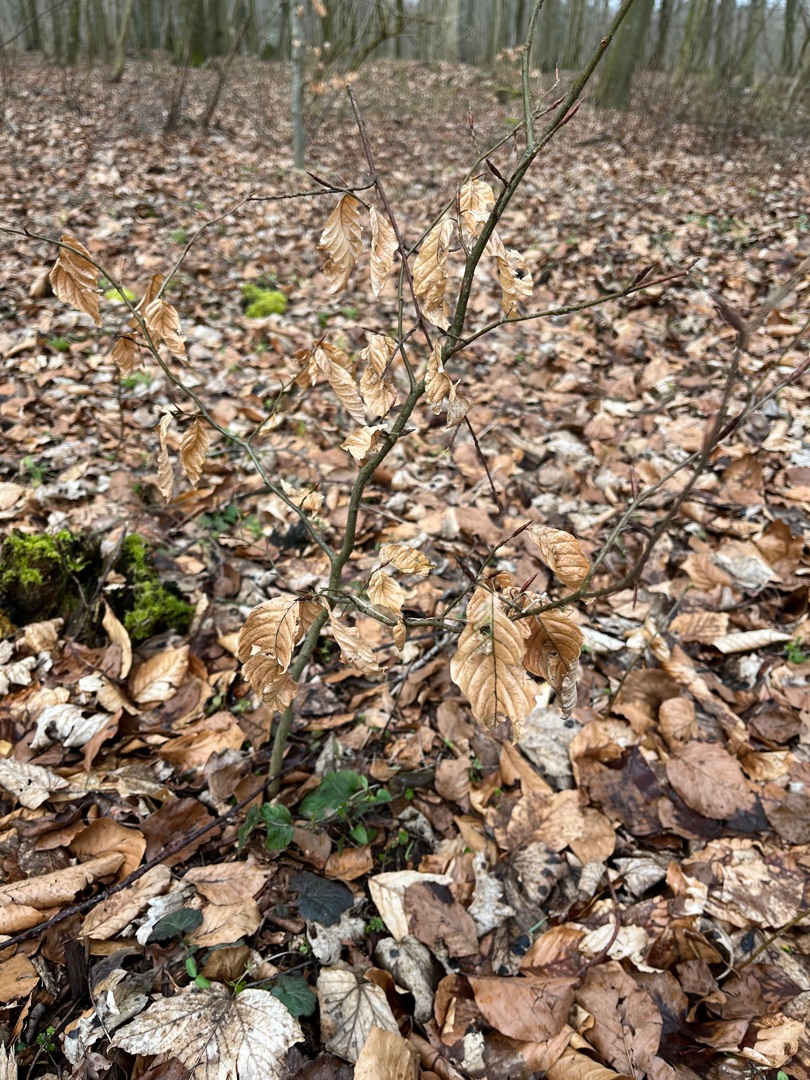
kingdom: Plantae
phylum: Tracheophyta
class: Magnoliopsida
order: Fagales
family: Fagaceae
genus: Fagus
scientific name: Fagus sylvatica
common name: Bøg
